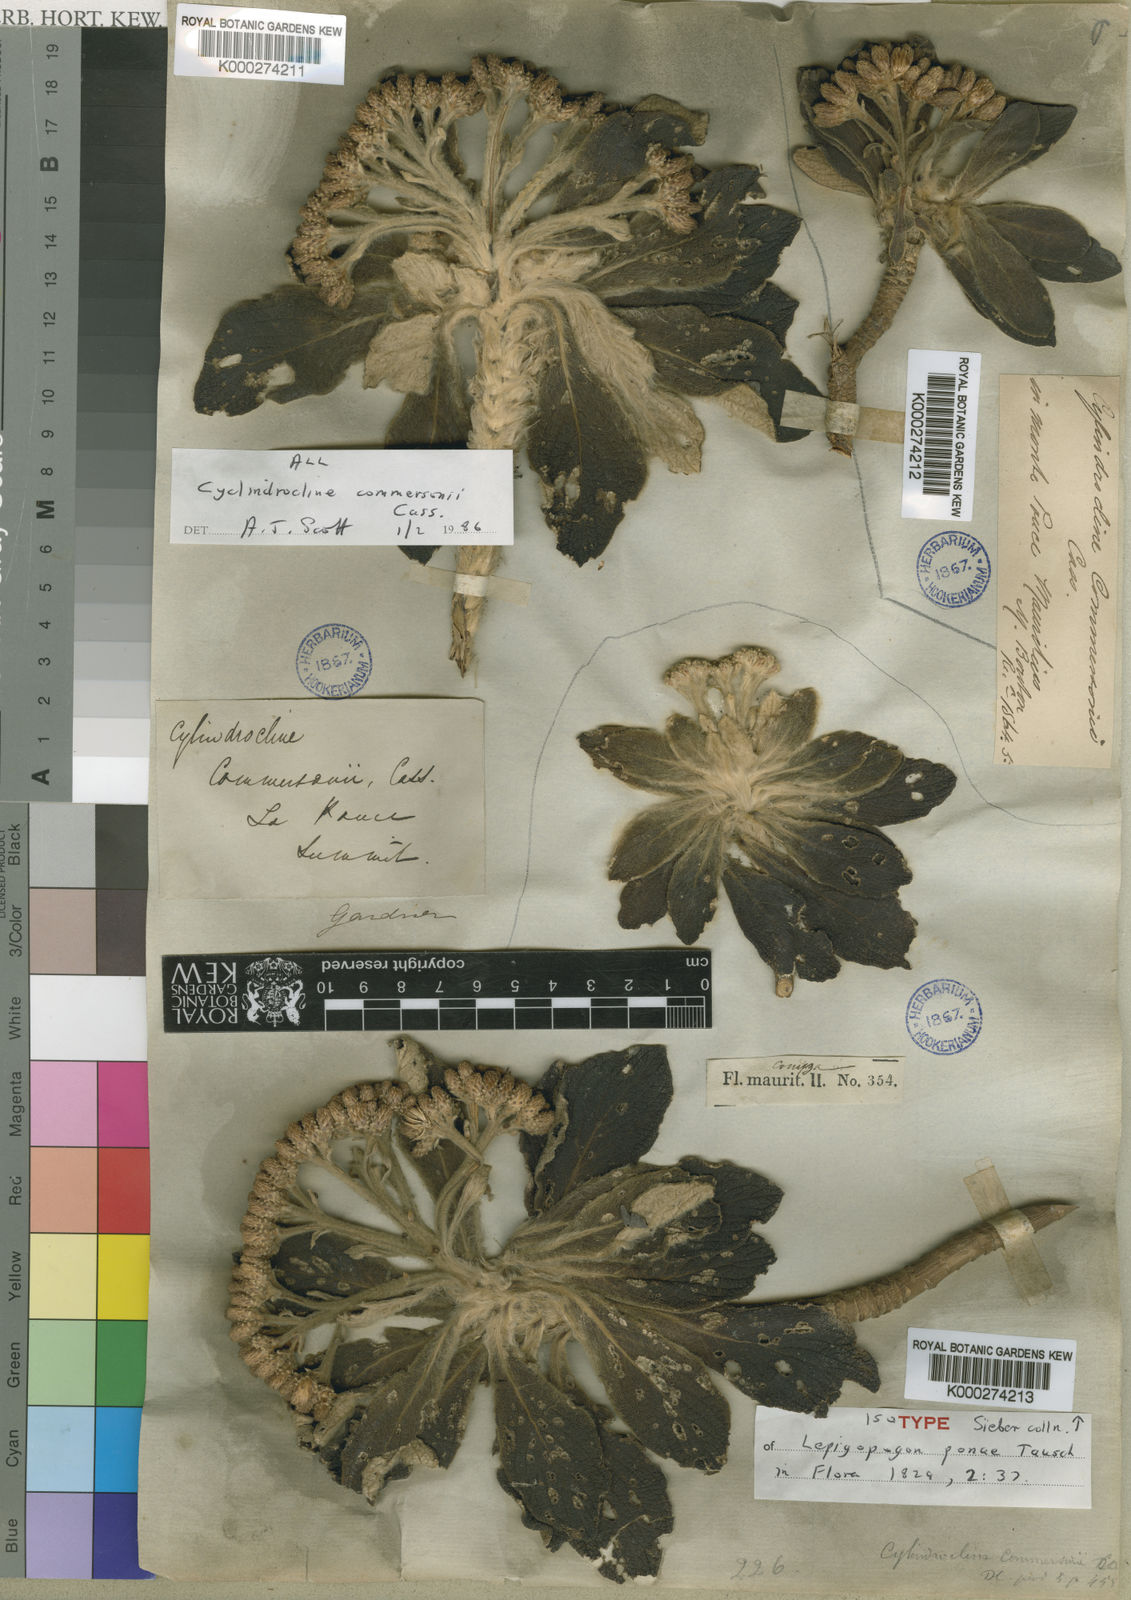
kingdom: Plantae
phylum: Tracheophyta
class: Magnoliopsida
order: Asterales
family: Asteraceae
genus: Cylindrocline
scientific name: Cylindrocline commersonii
